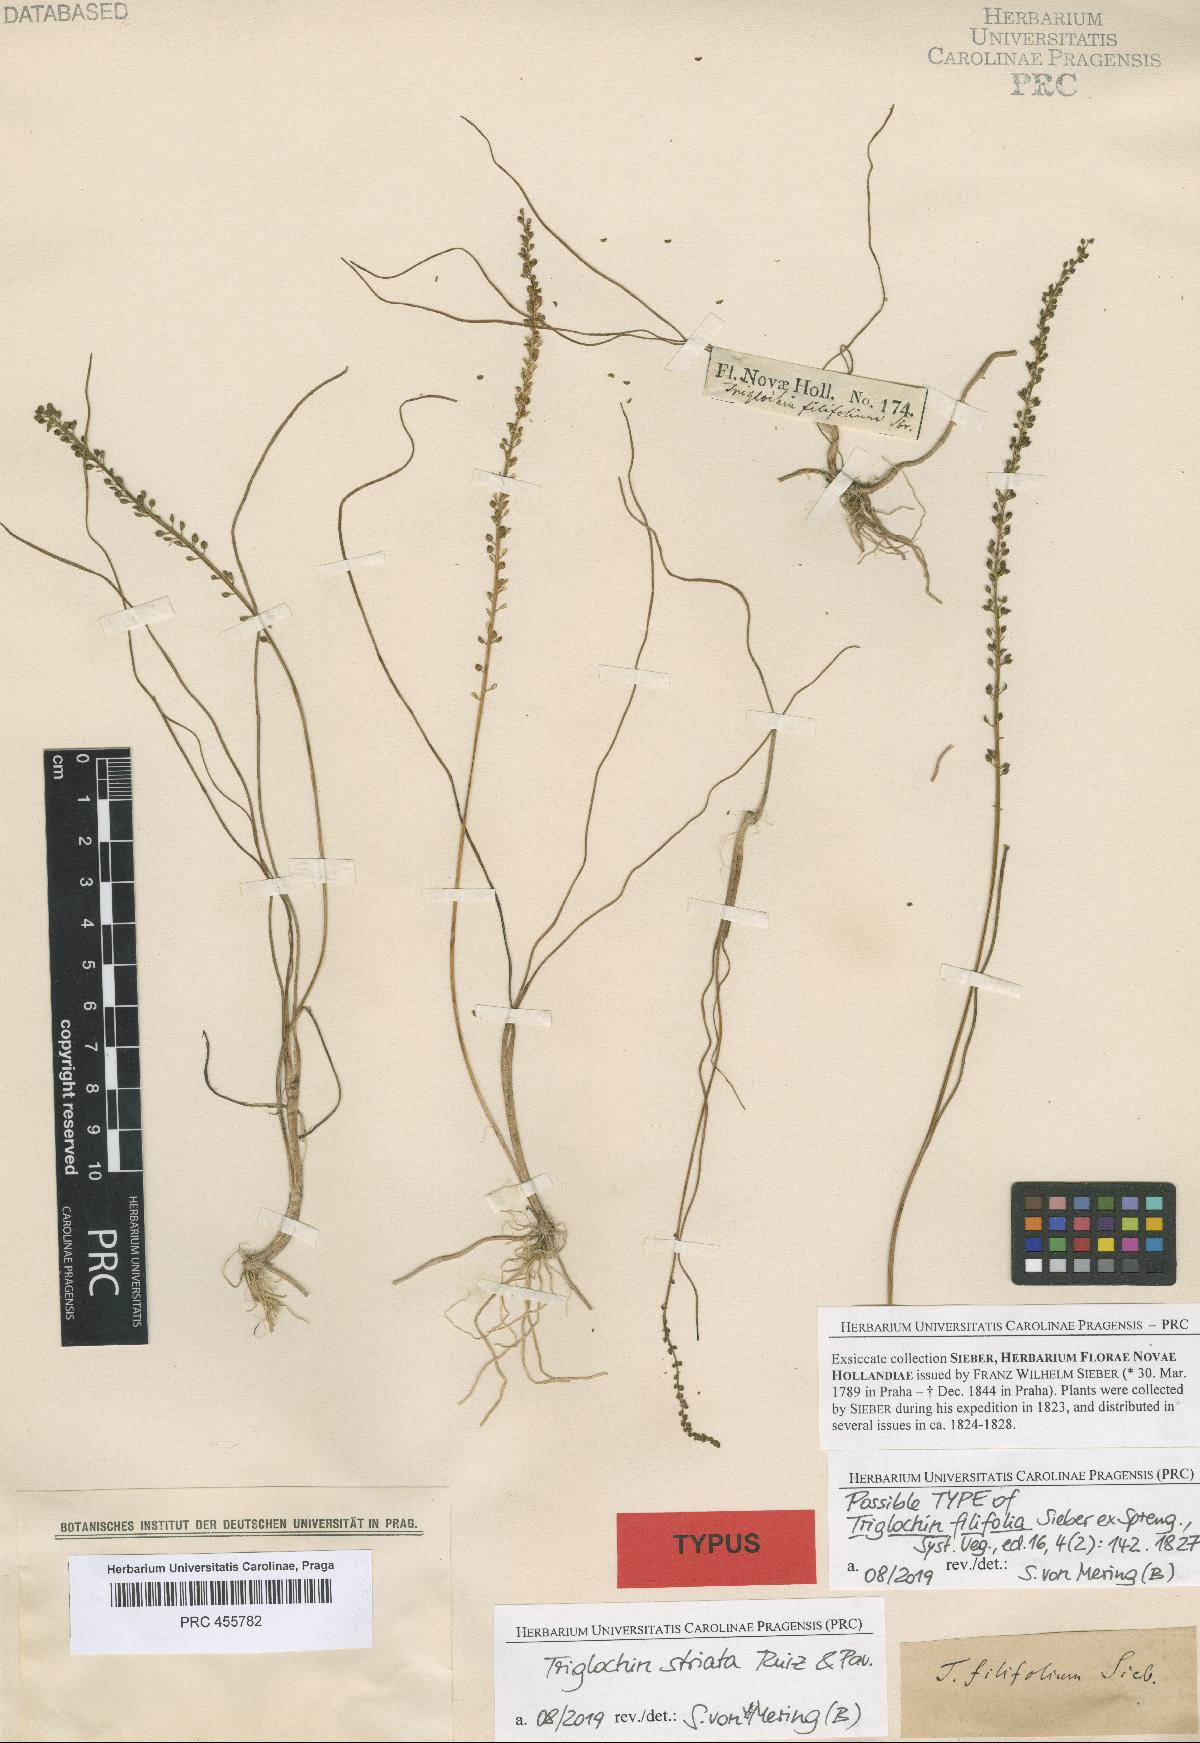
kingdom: Plantae
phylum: Tracheophyta
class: Liliopsida
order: Alismatales
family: Juncaginaceae
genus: Triglochin
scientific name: Triglochin striata
